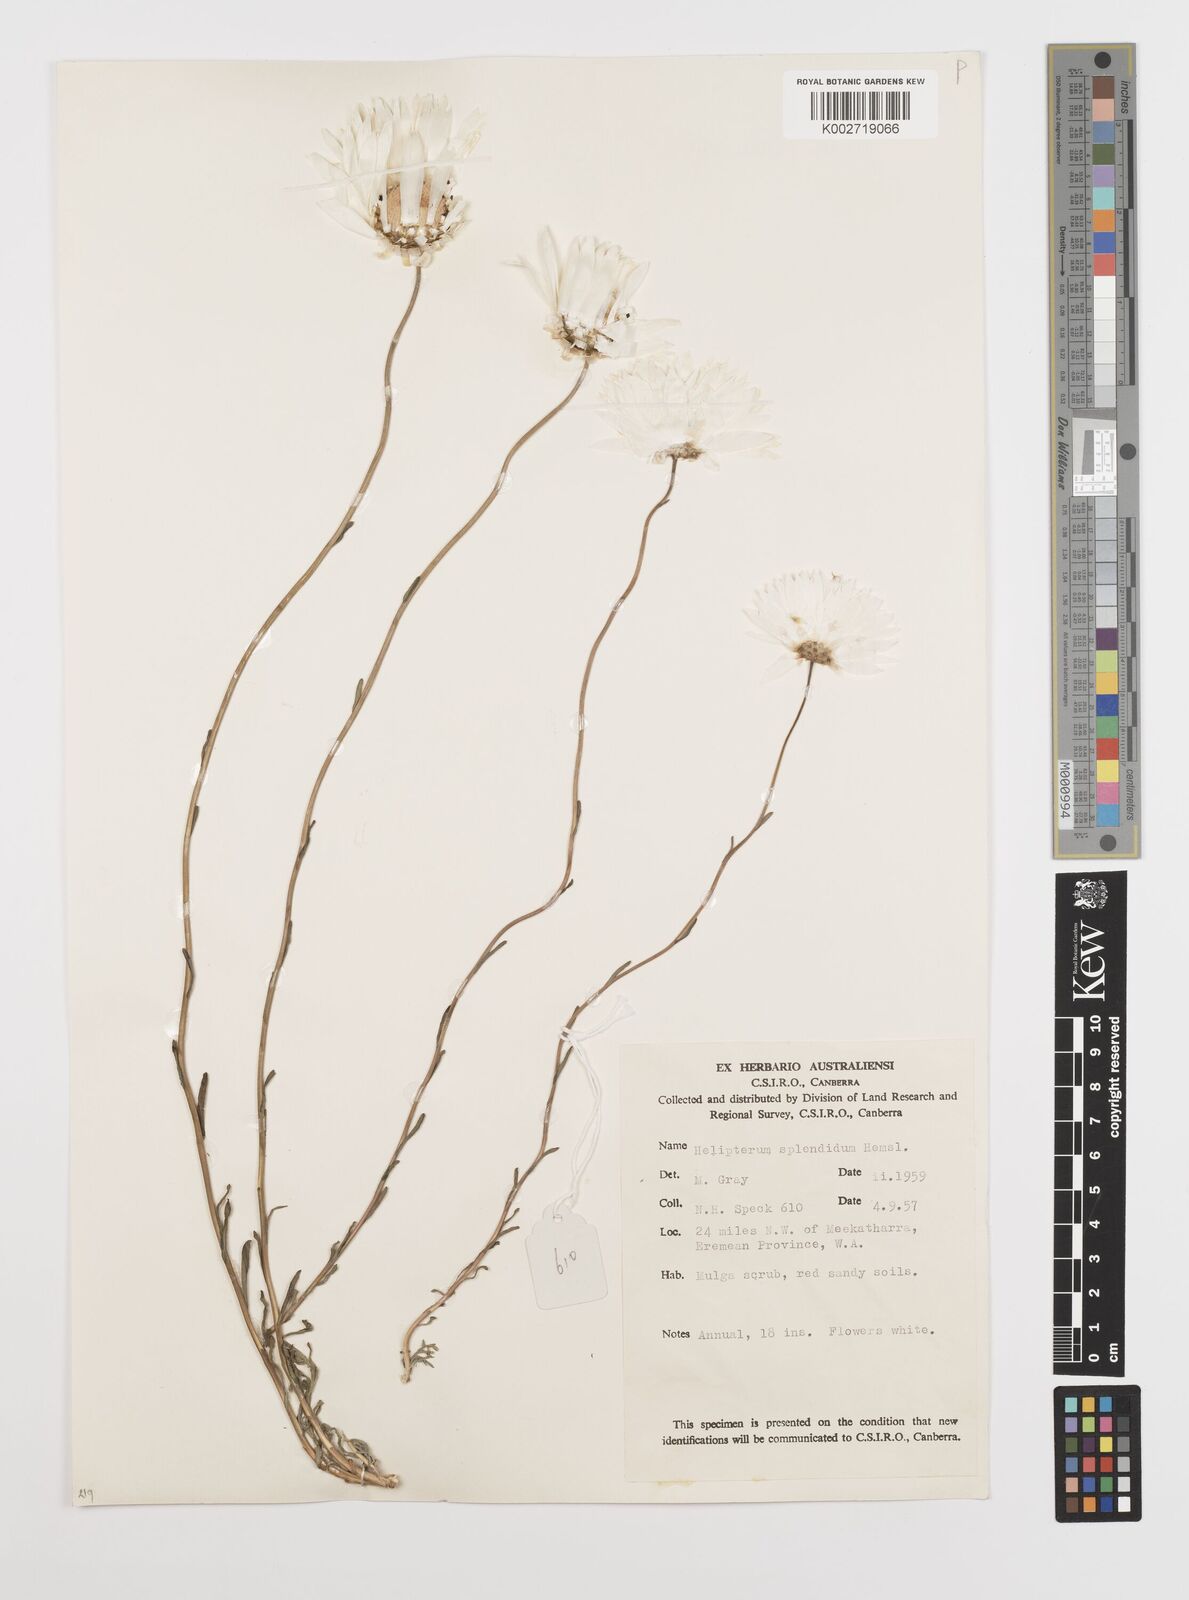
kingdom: Plantae
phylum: Tracheophyta
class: Magnoliopsida
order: Asterales
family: Asteraceae
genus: Rhodanthe
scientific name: Rhodanthe chlorocephala
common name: Rosy sunray
